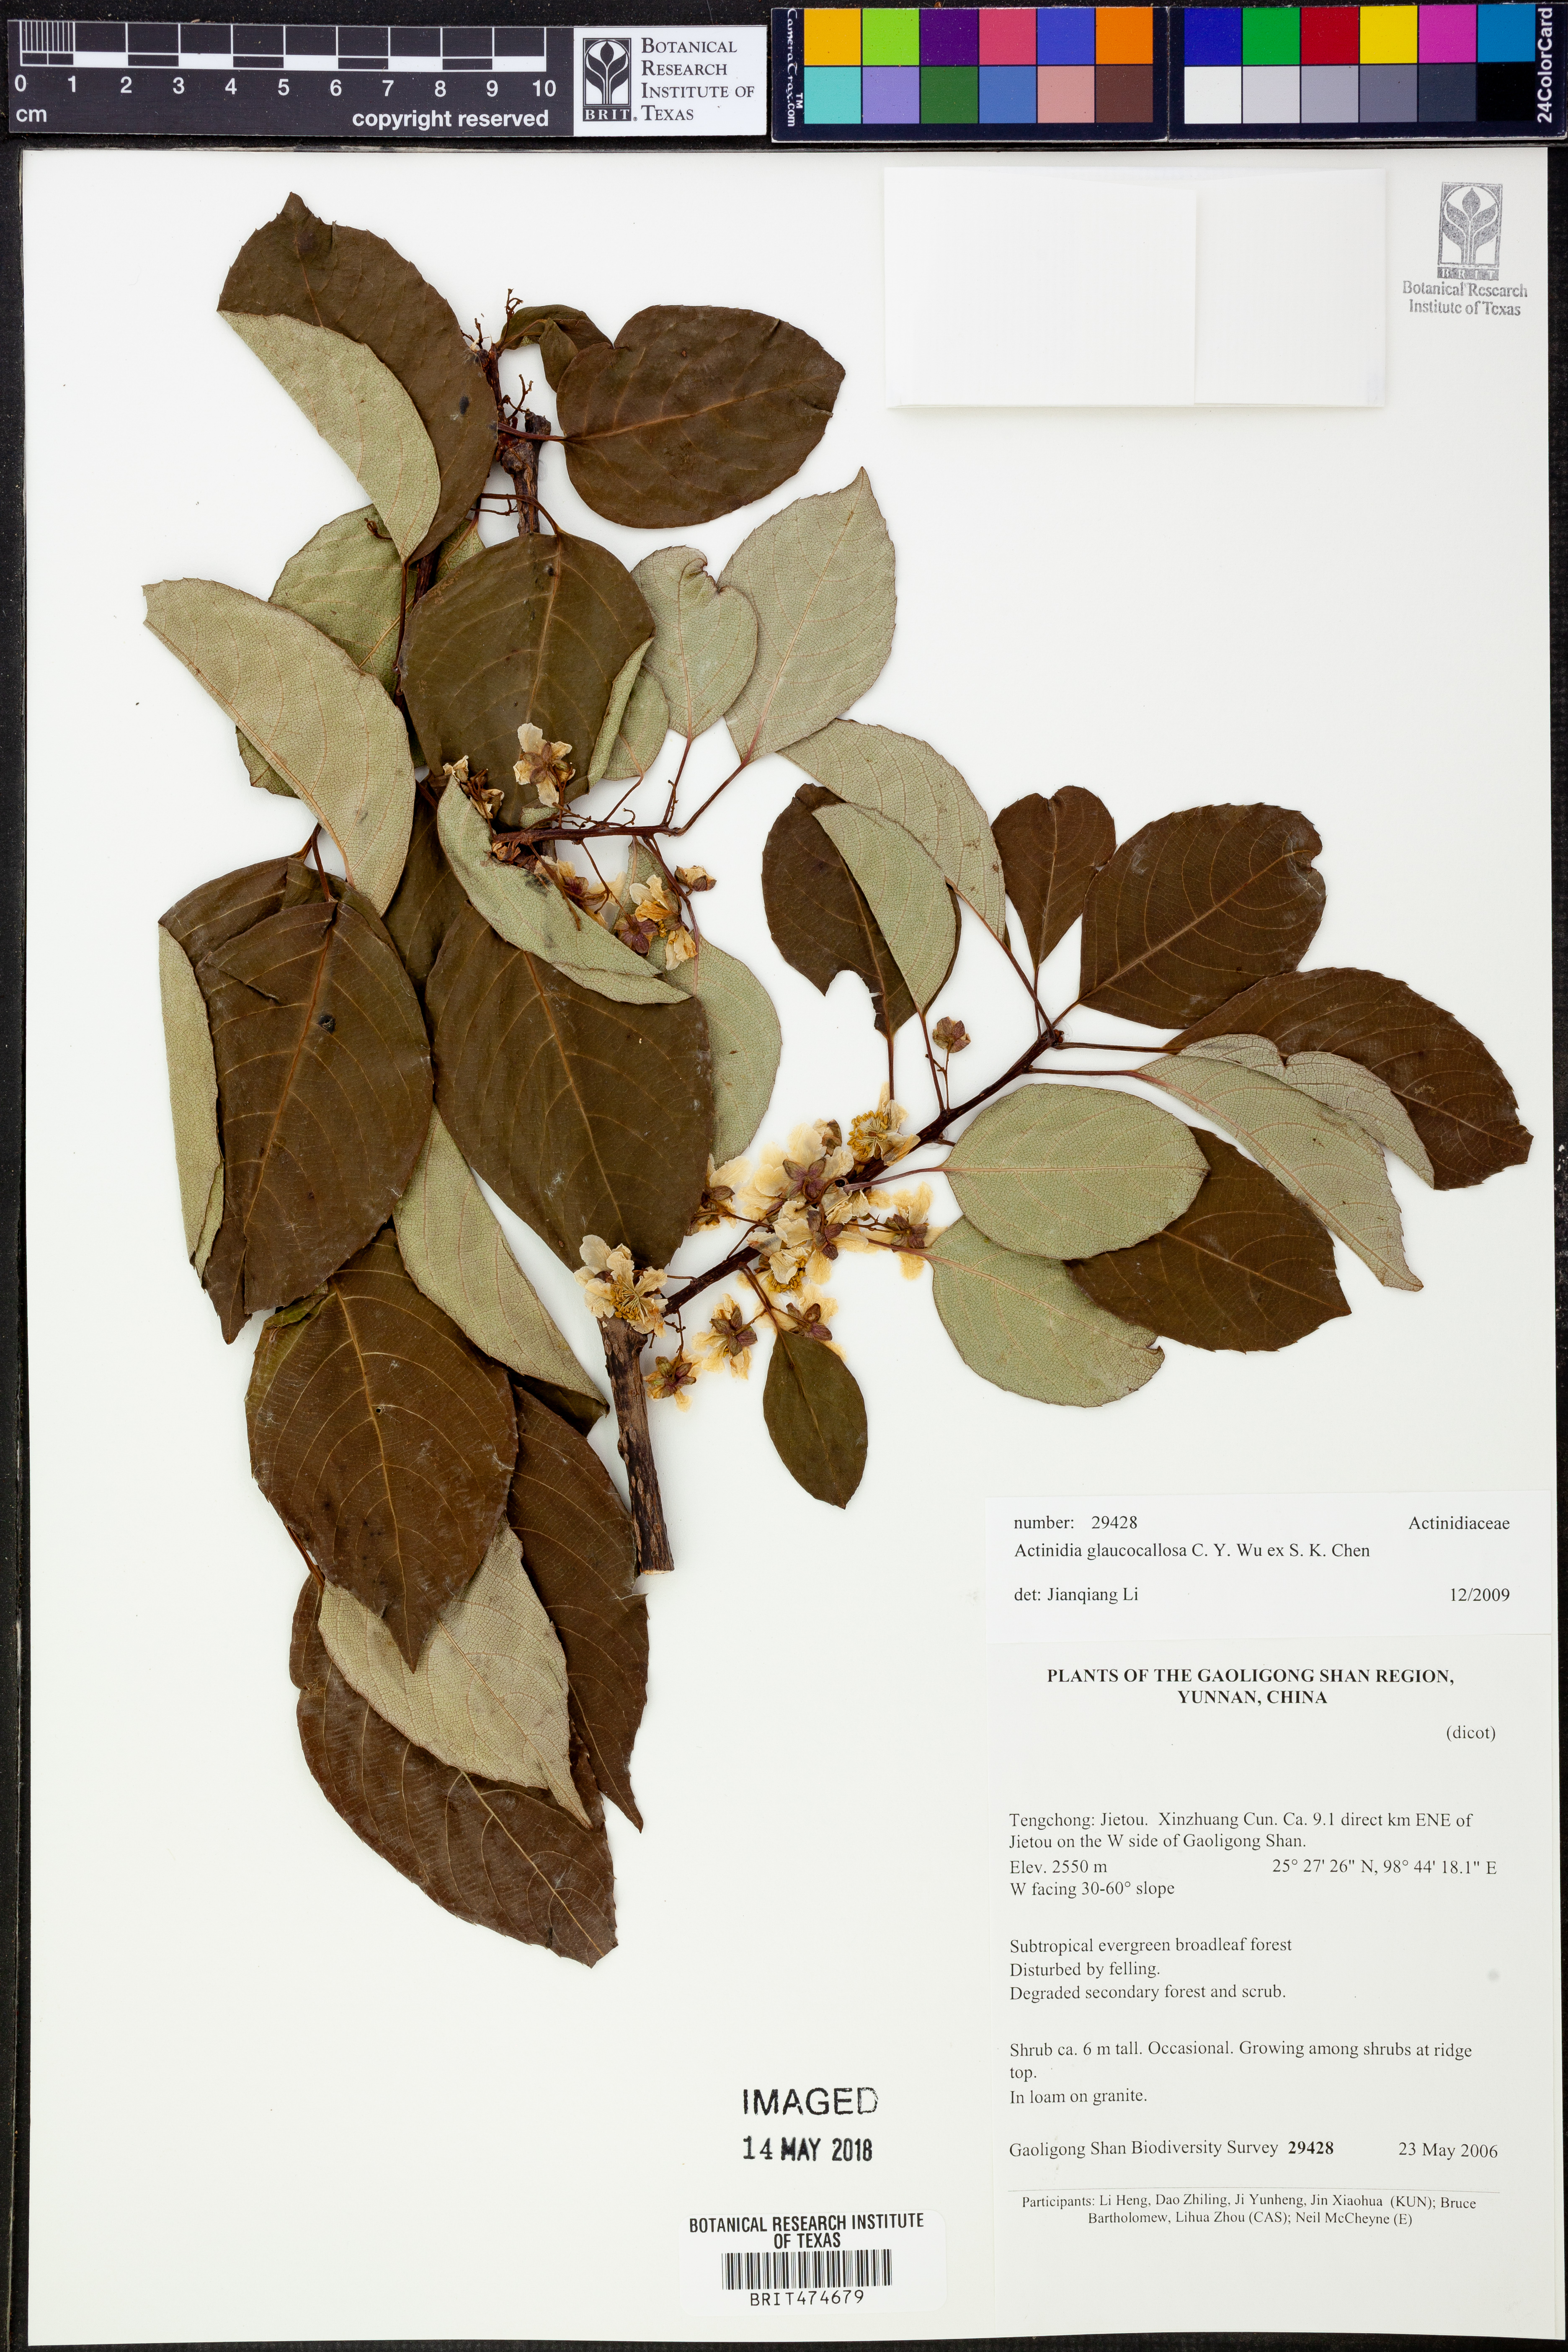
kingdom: Plantae
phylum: Tracheophyta
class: Magnoliopsida
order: Ericales
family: Actinidiaceae
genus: Actinidia
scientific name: Actinidia glaucocallosa
